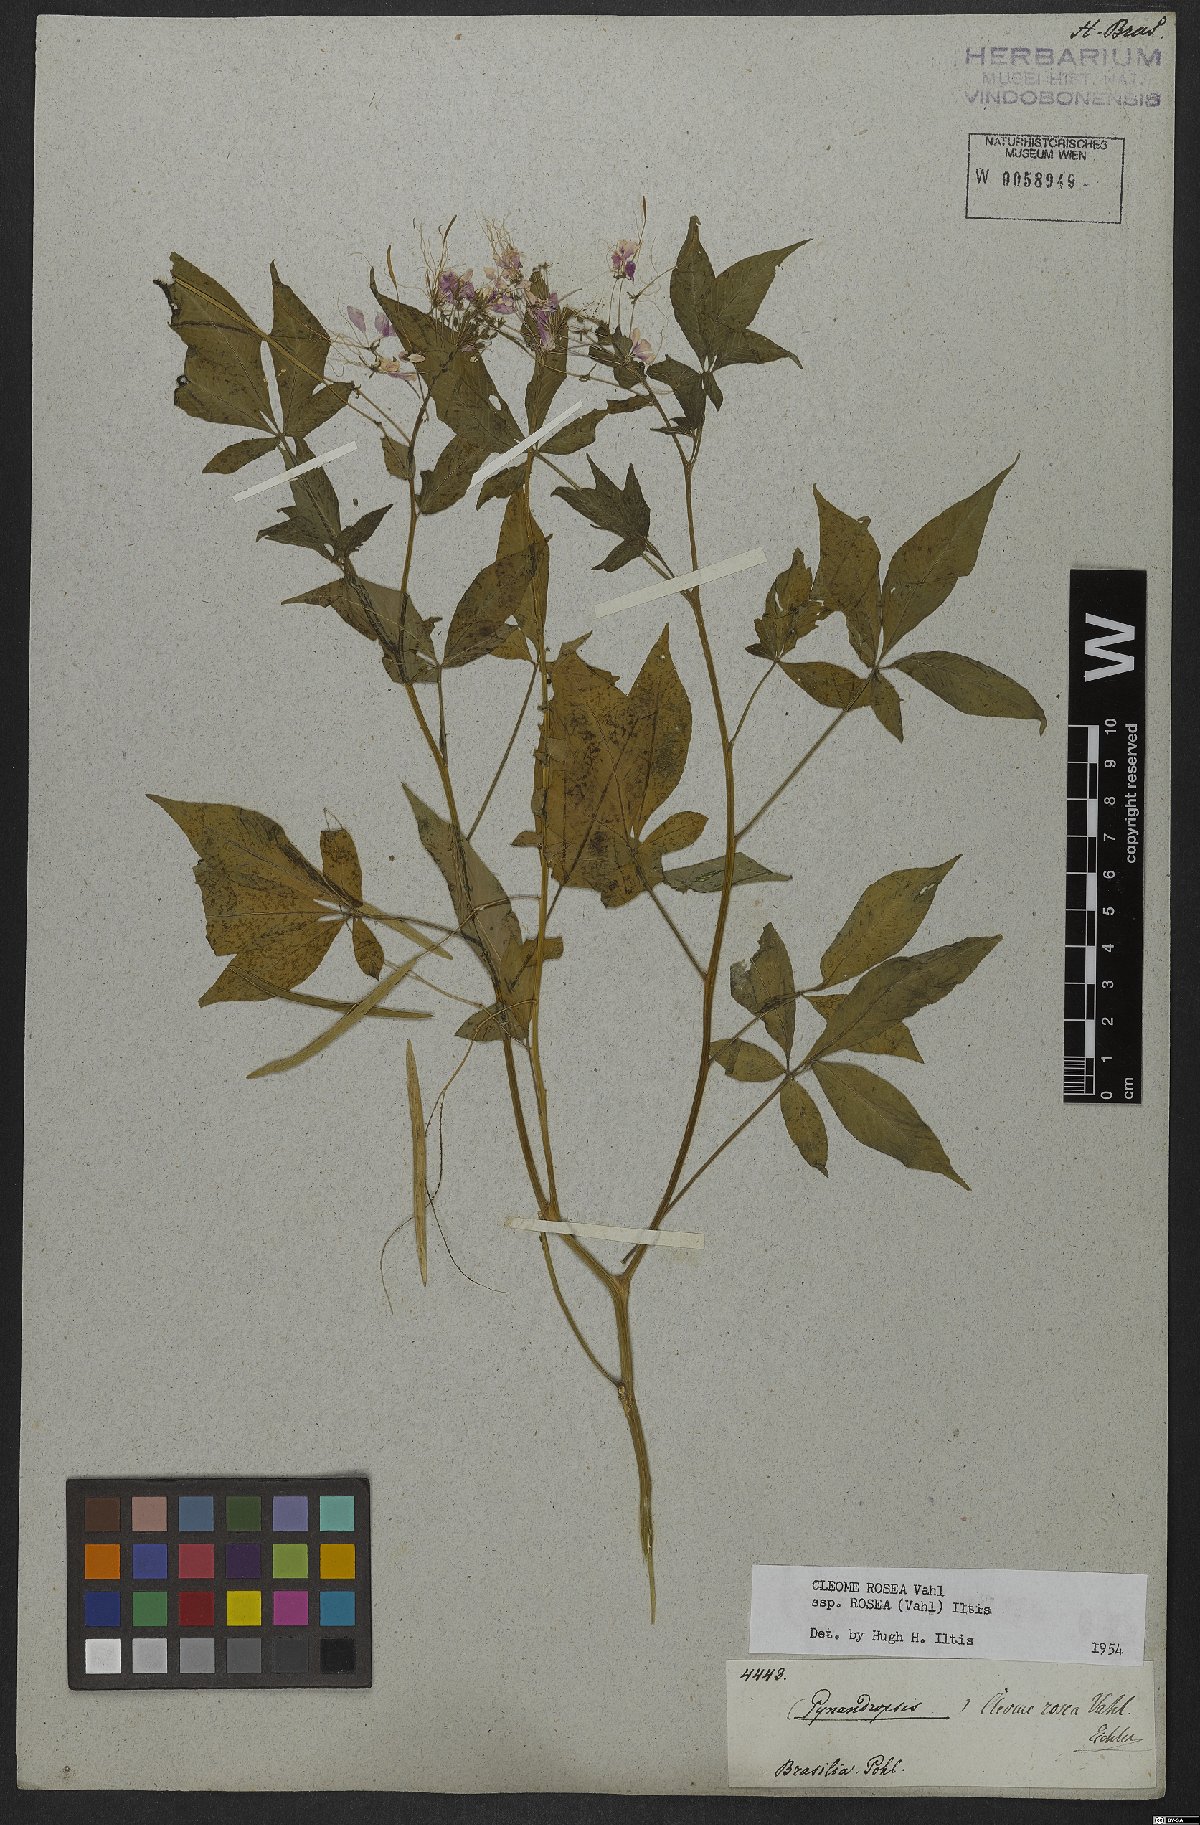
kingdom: Plantae
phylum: Tracheophyta
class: Magnoliopsida
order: Brassicales
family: Cleomaceae
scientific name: Cleomaceae
